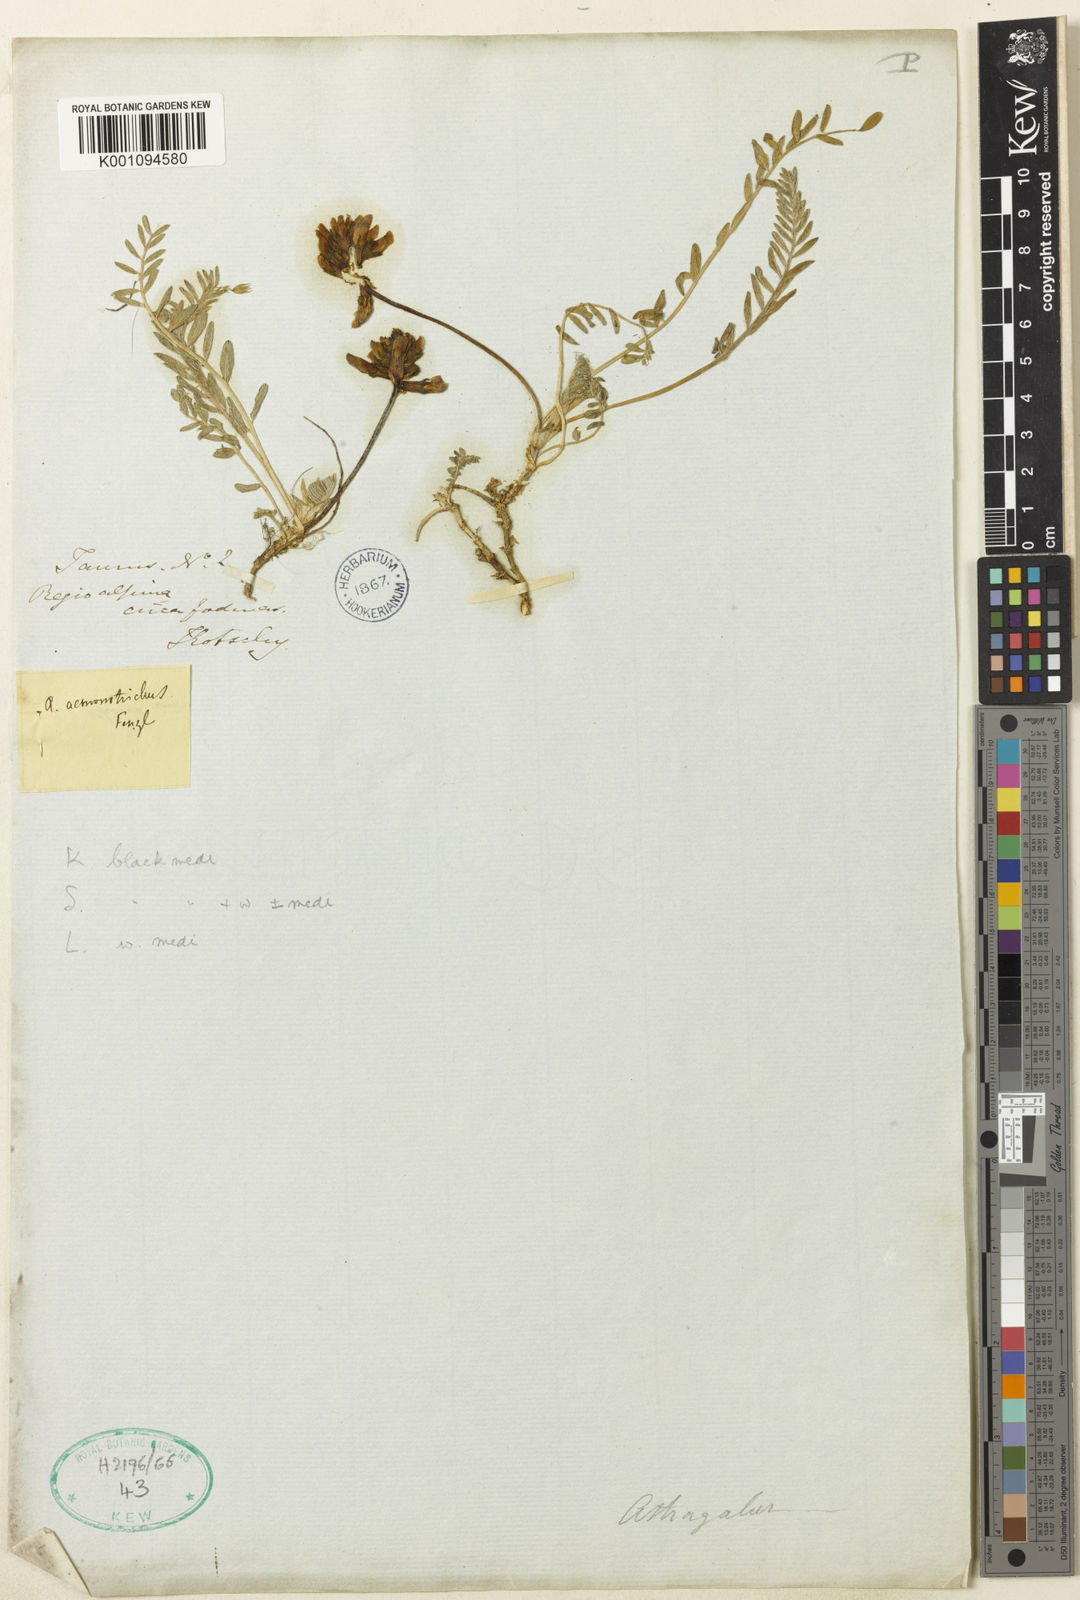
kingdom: Plantae
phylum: Tracheophyta
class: Magnoliopsida
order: Fabales
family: Fabaceae
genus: Astragalus
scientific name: Astragalus
